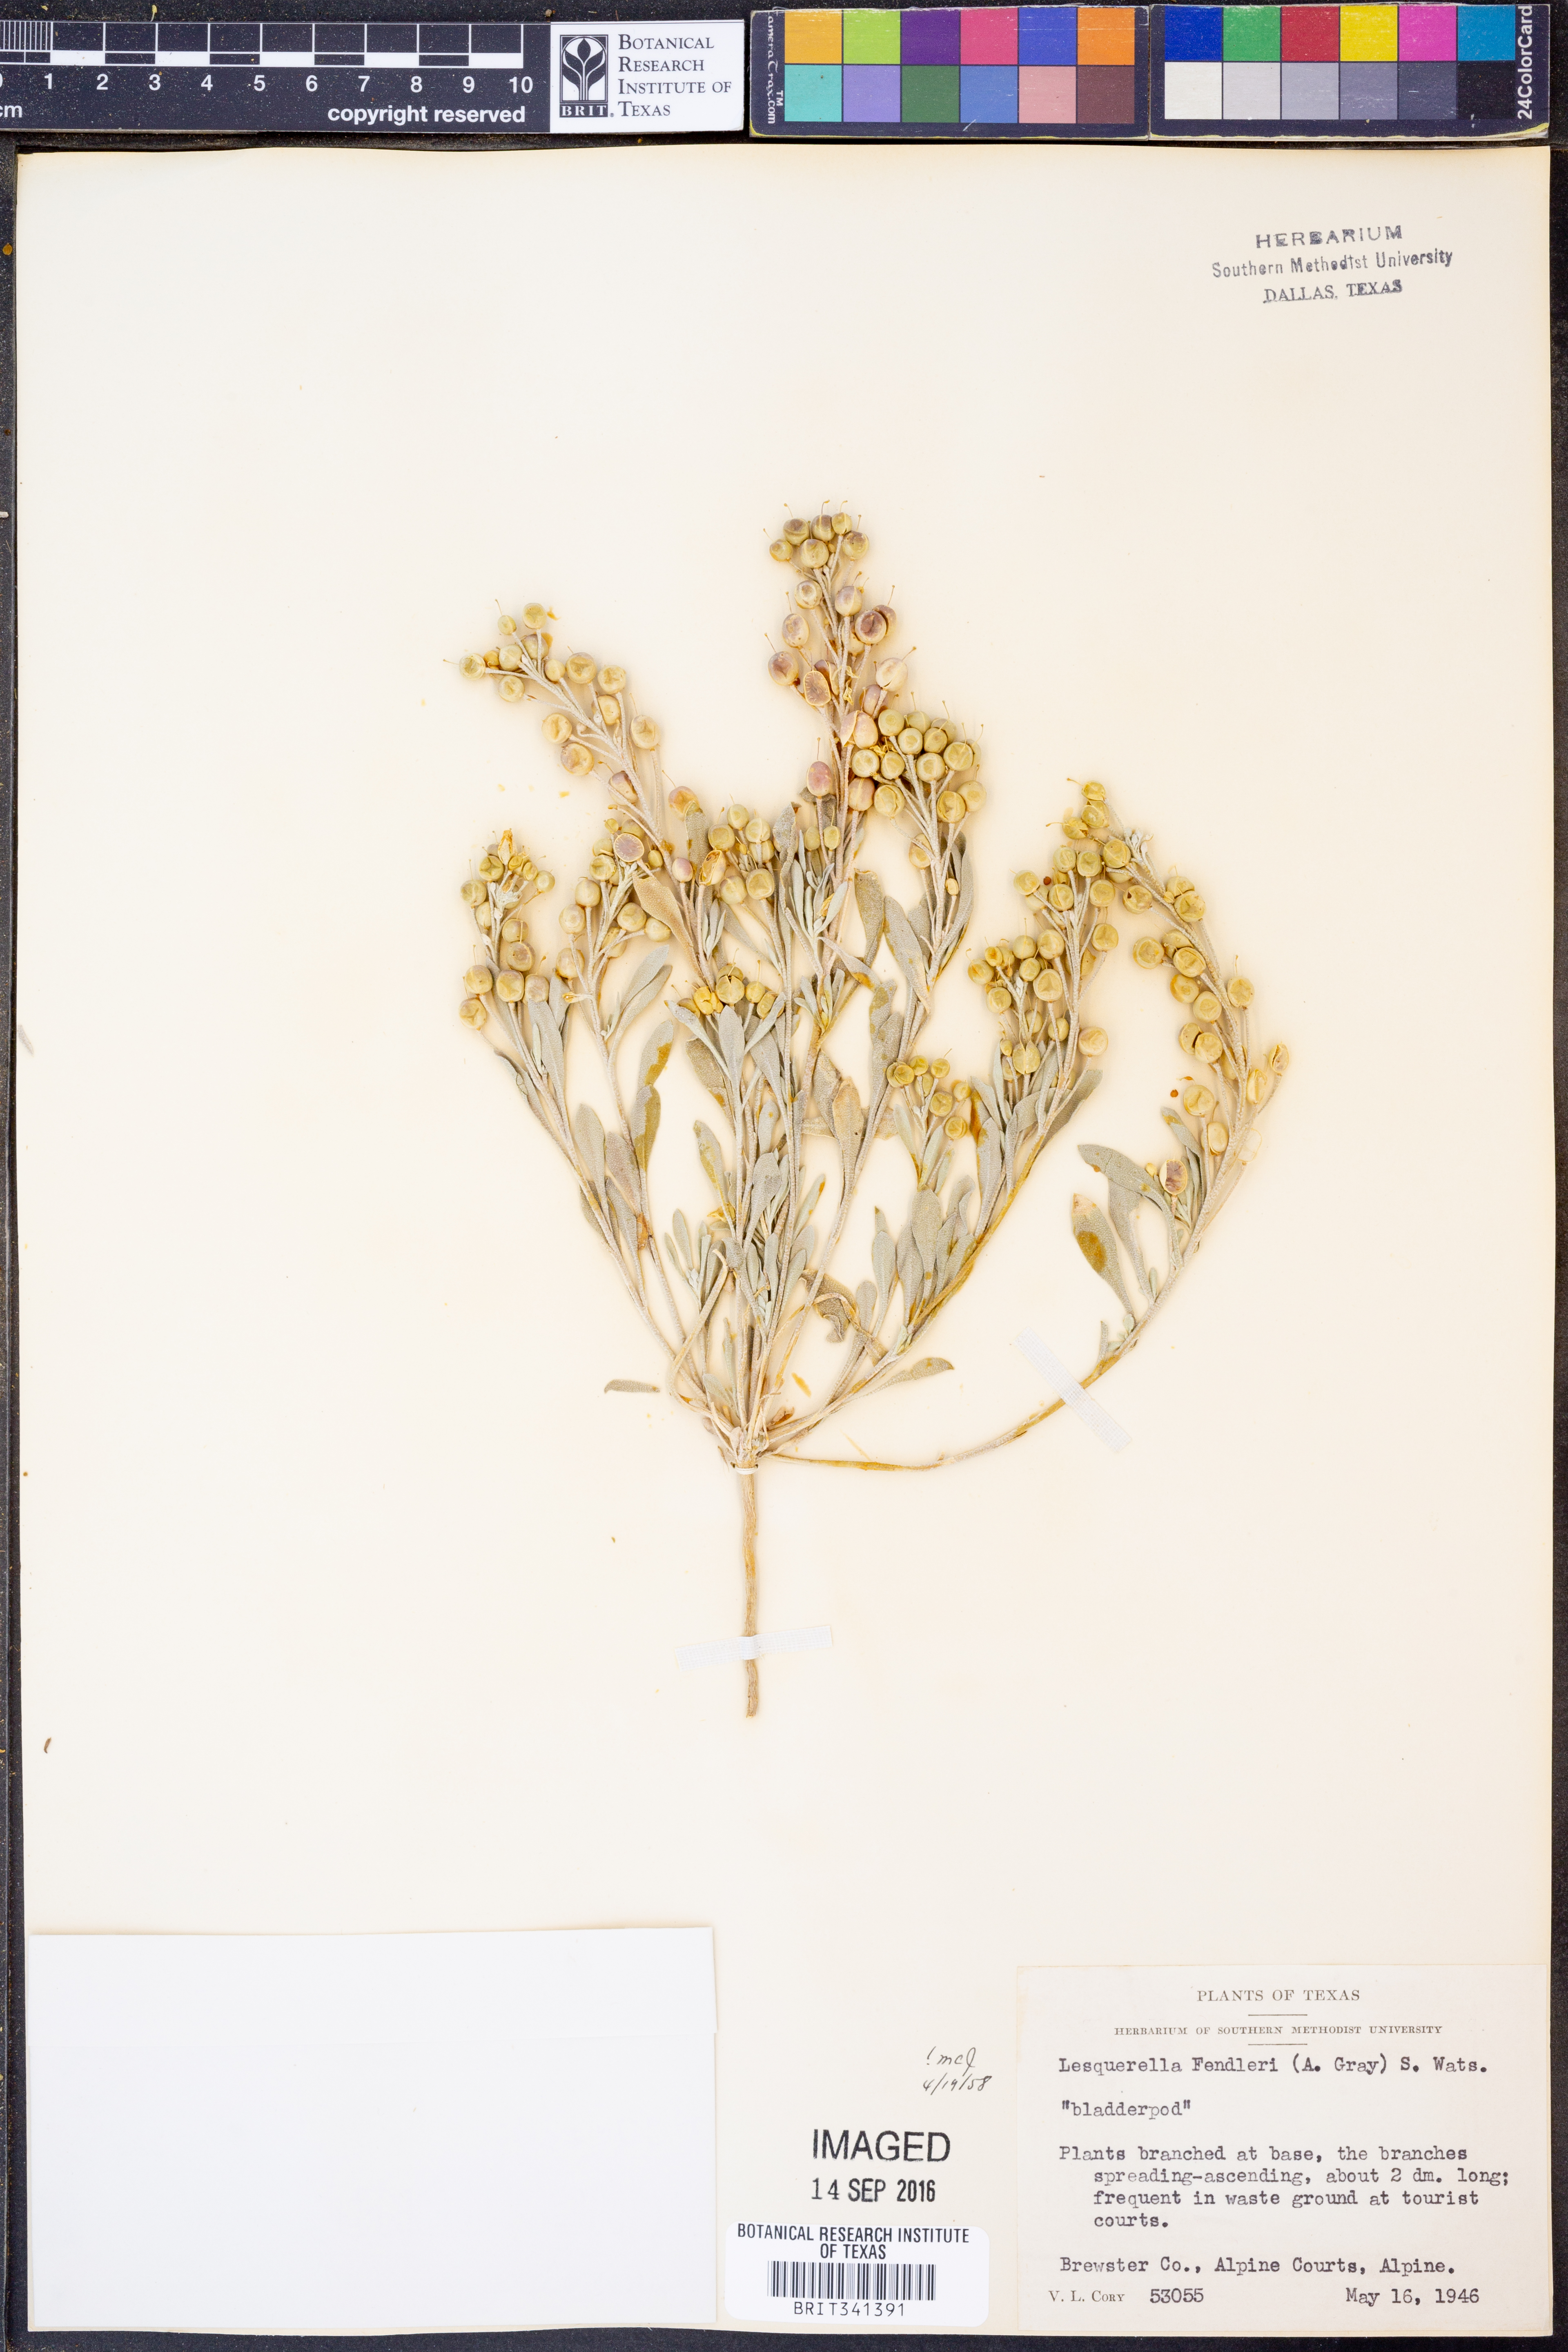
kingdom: Plantae
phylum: Tracheophyta
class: Magnoliopsida
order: Brassicales
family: Brassicaceae
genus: Physaria
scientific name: Physaria fendleri
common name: Fendler's bladderpod
